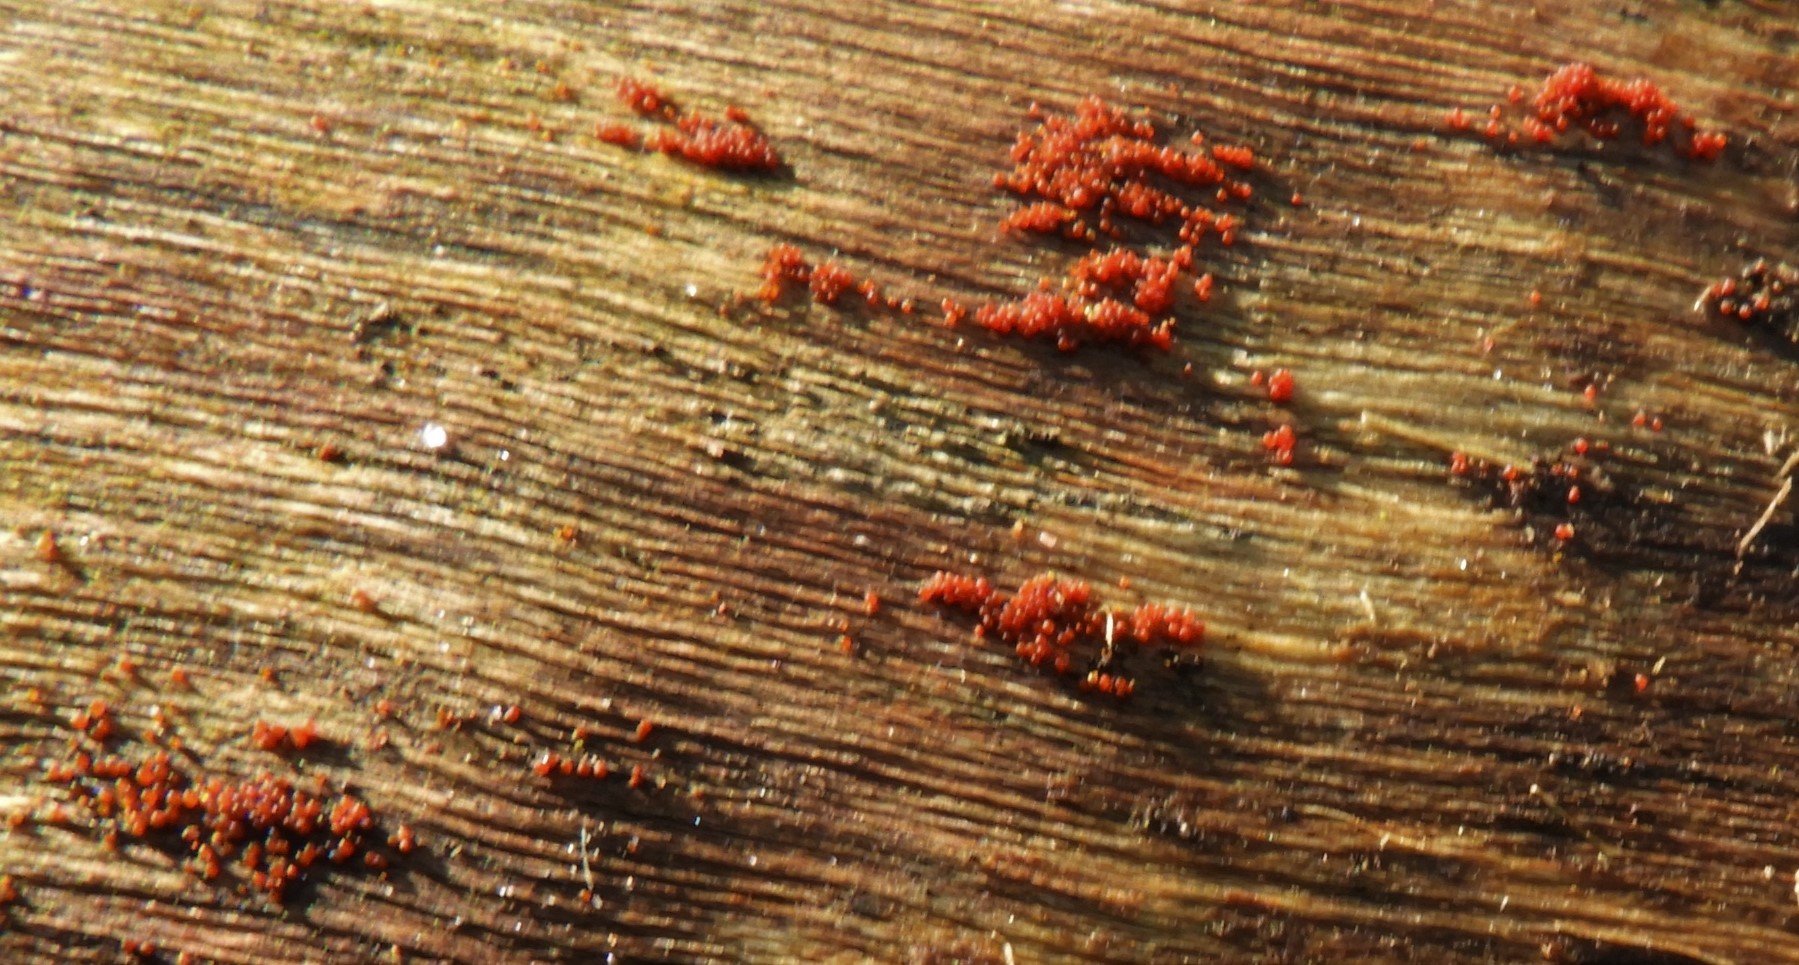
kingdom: Fungi
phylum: Ascomycota
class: Sordariomycetes
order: Hypocreales
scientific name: Hypocreales
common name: kødkerneordenen
